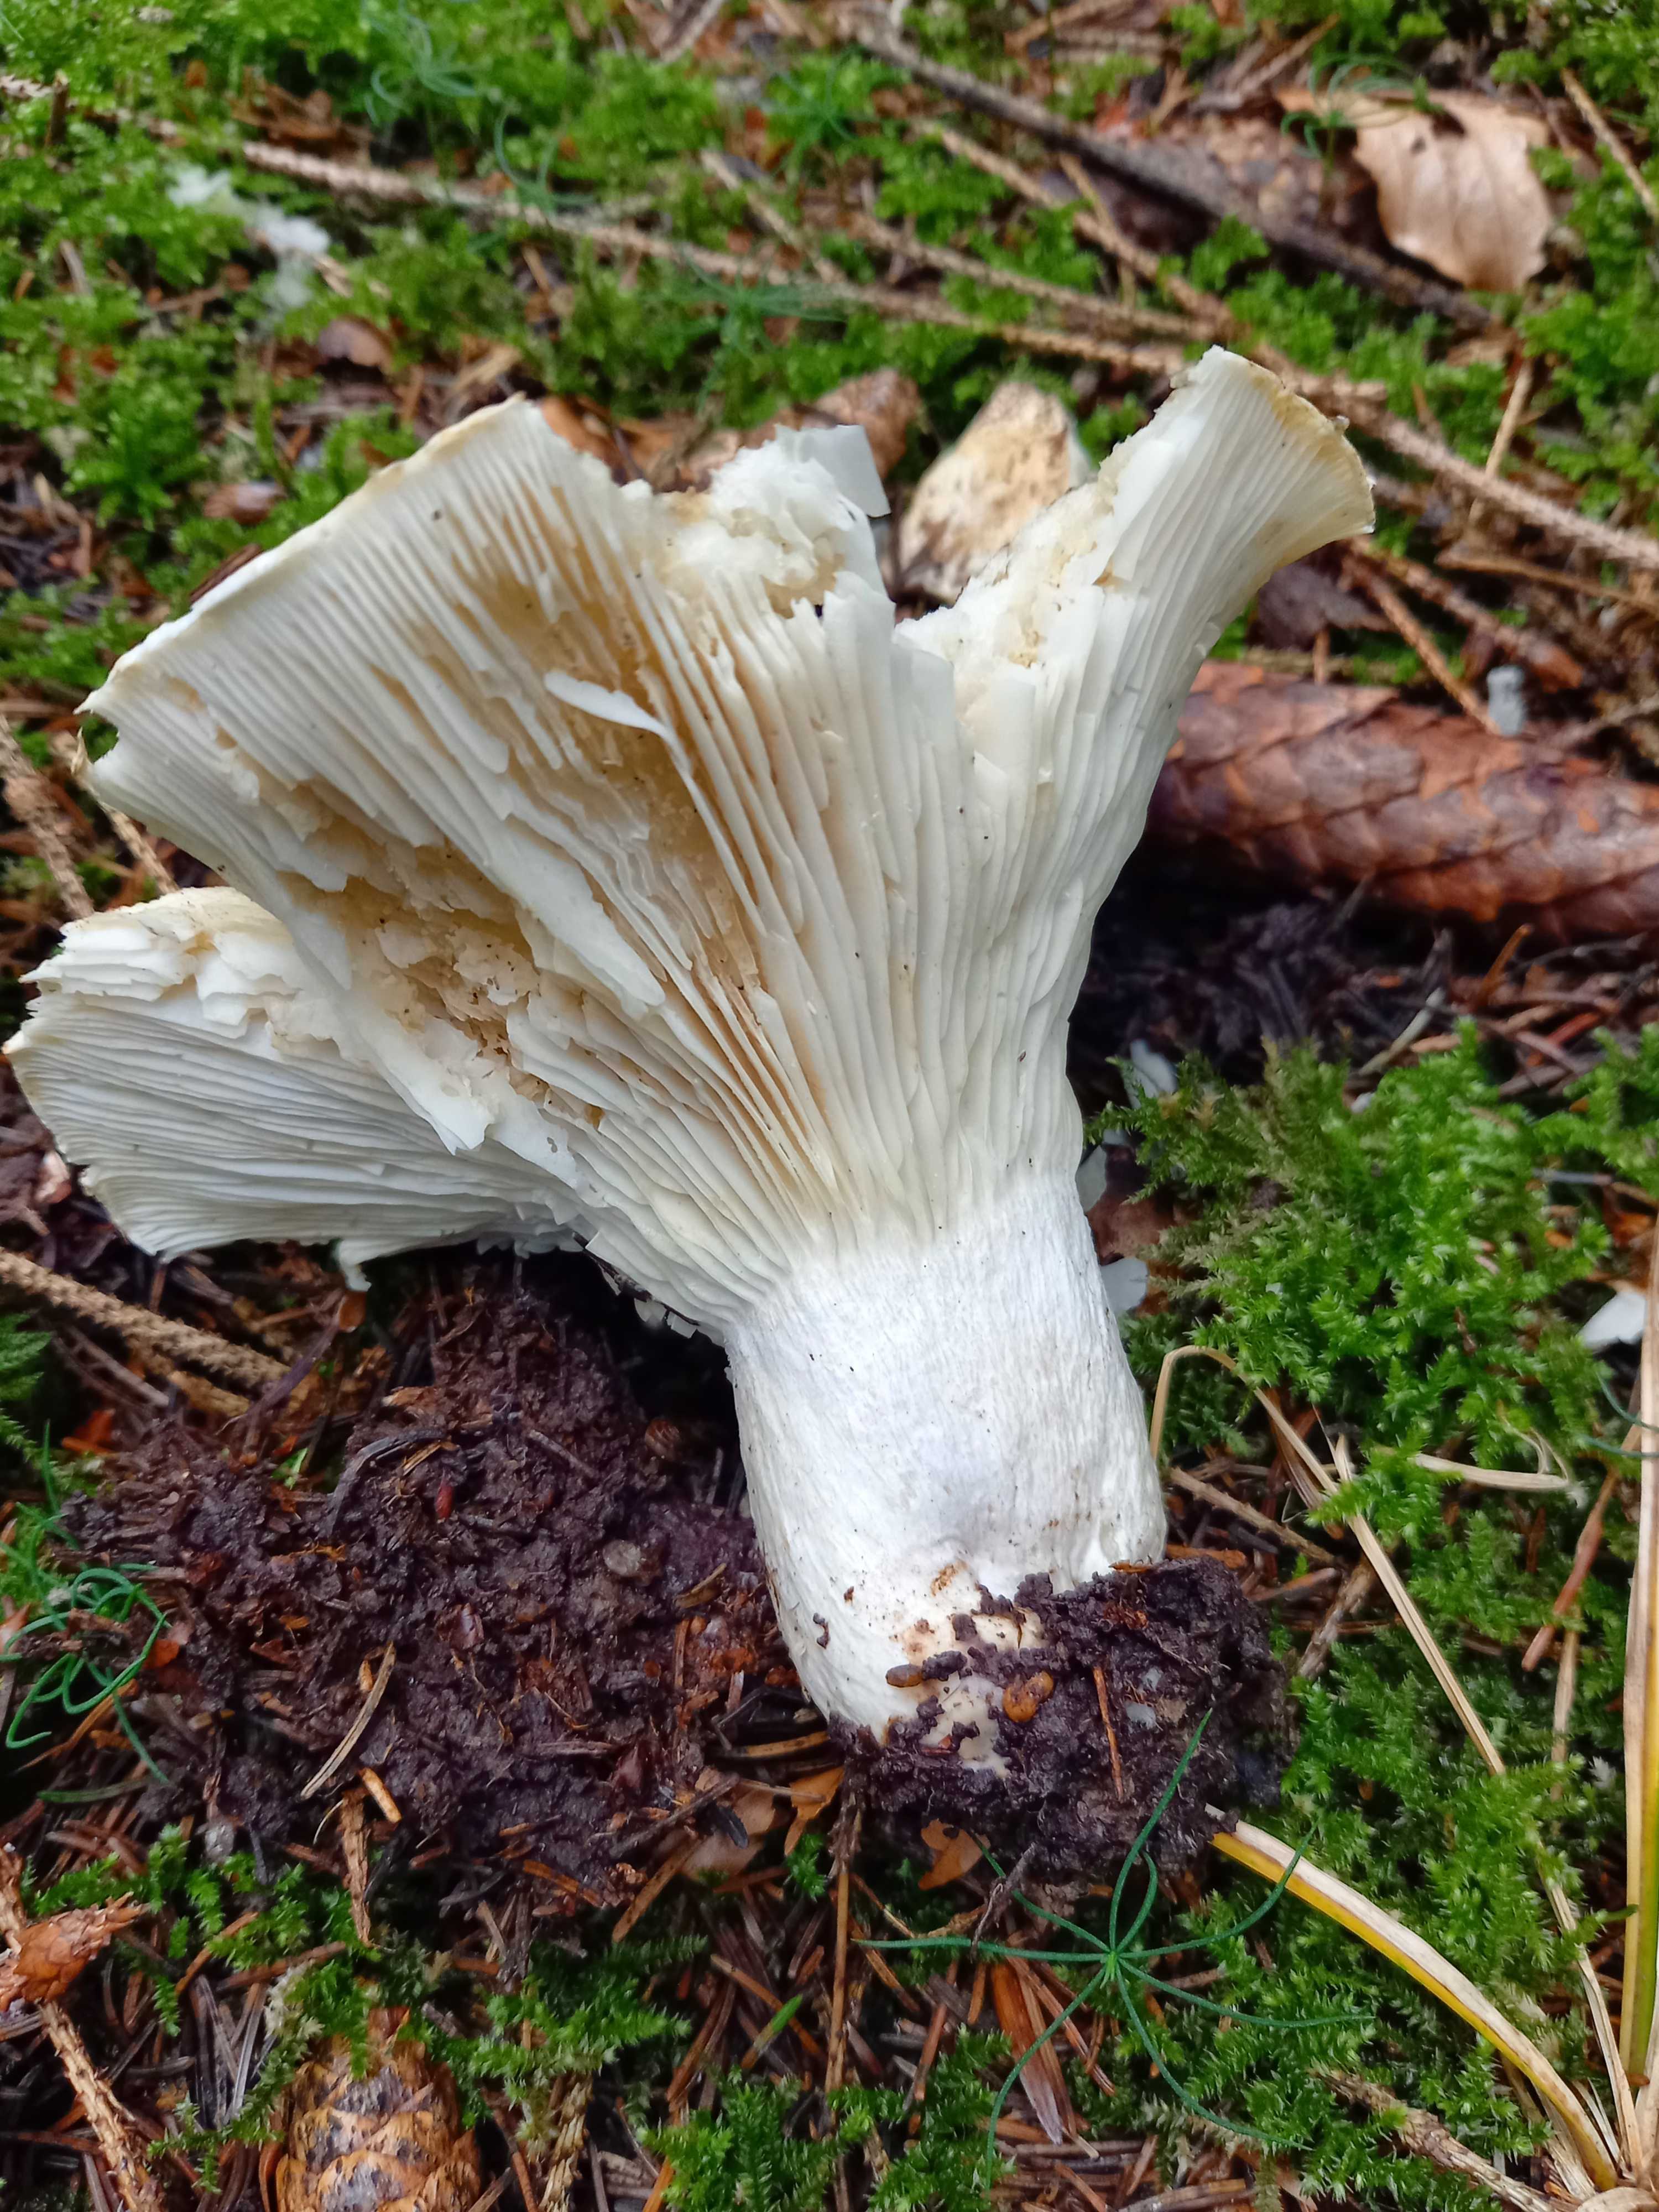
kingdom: Fungi
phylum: Basidiomycota
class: Agaricomycetes
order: Russulales
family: Russulaceae
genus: Russula
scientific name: Russula delica
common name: almindelig tragt-skørhat
